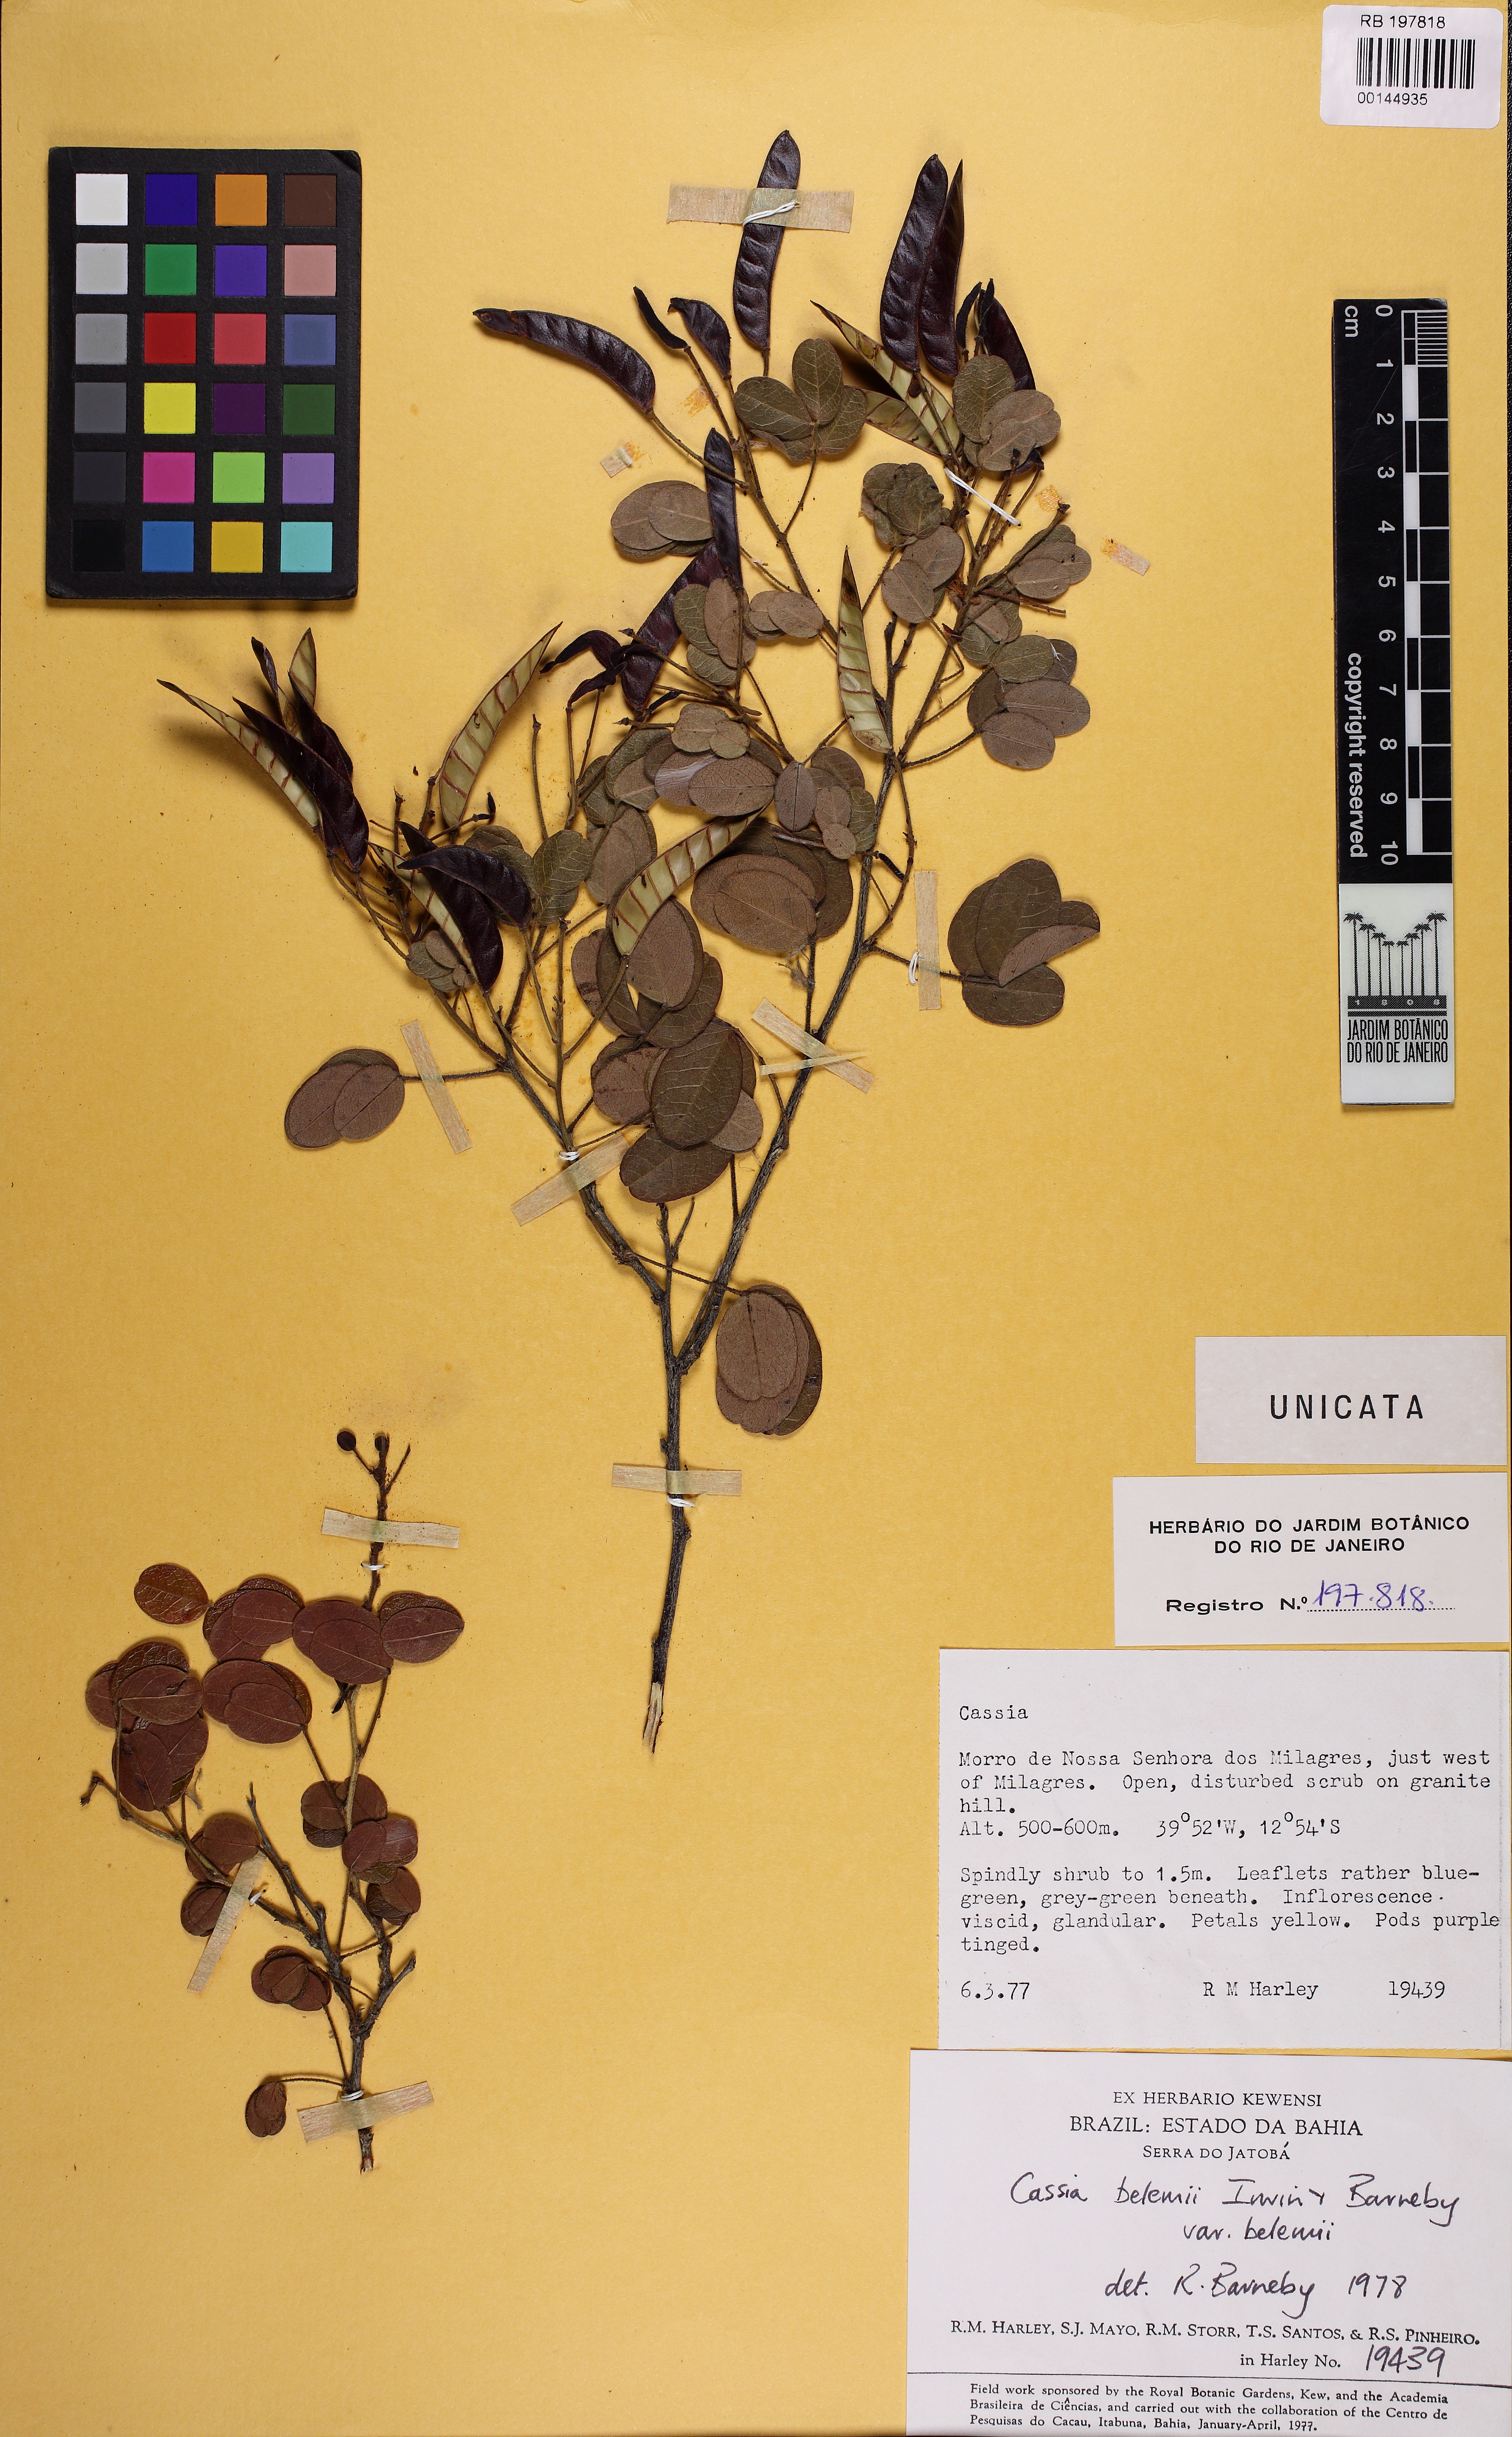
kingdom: Plantae
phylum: Tracheophyta
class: Magnoliopsida
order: Fabales
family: Fabaceae
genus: Chamaecrista
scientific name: Chamaecrista belemii
